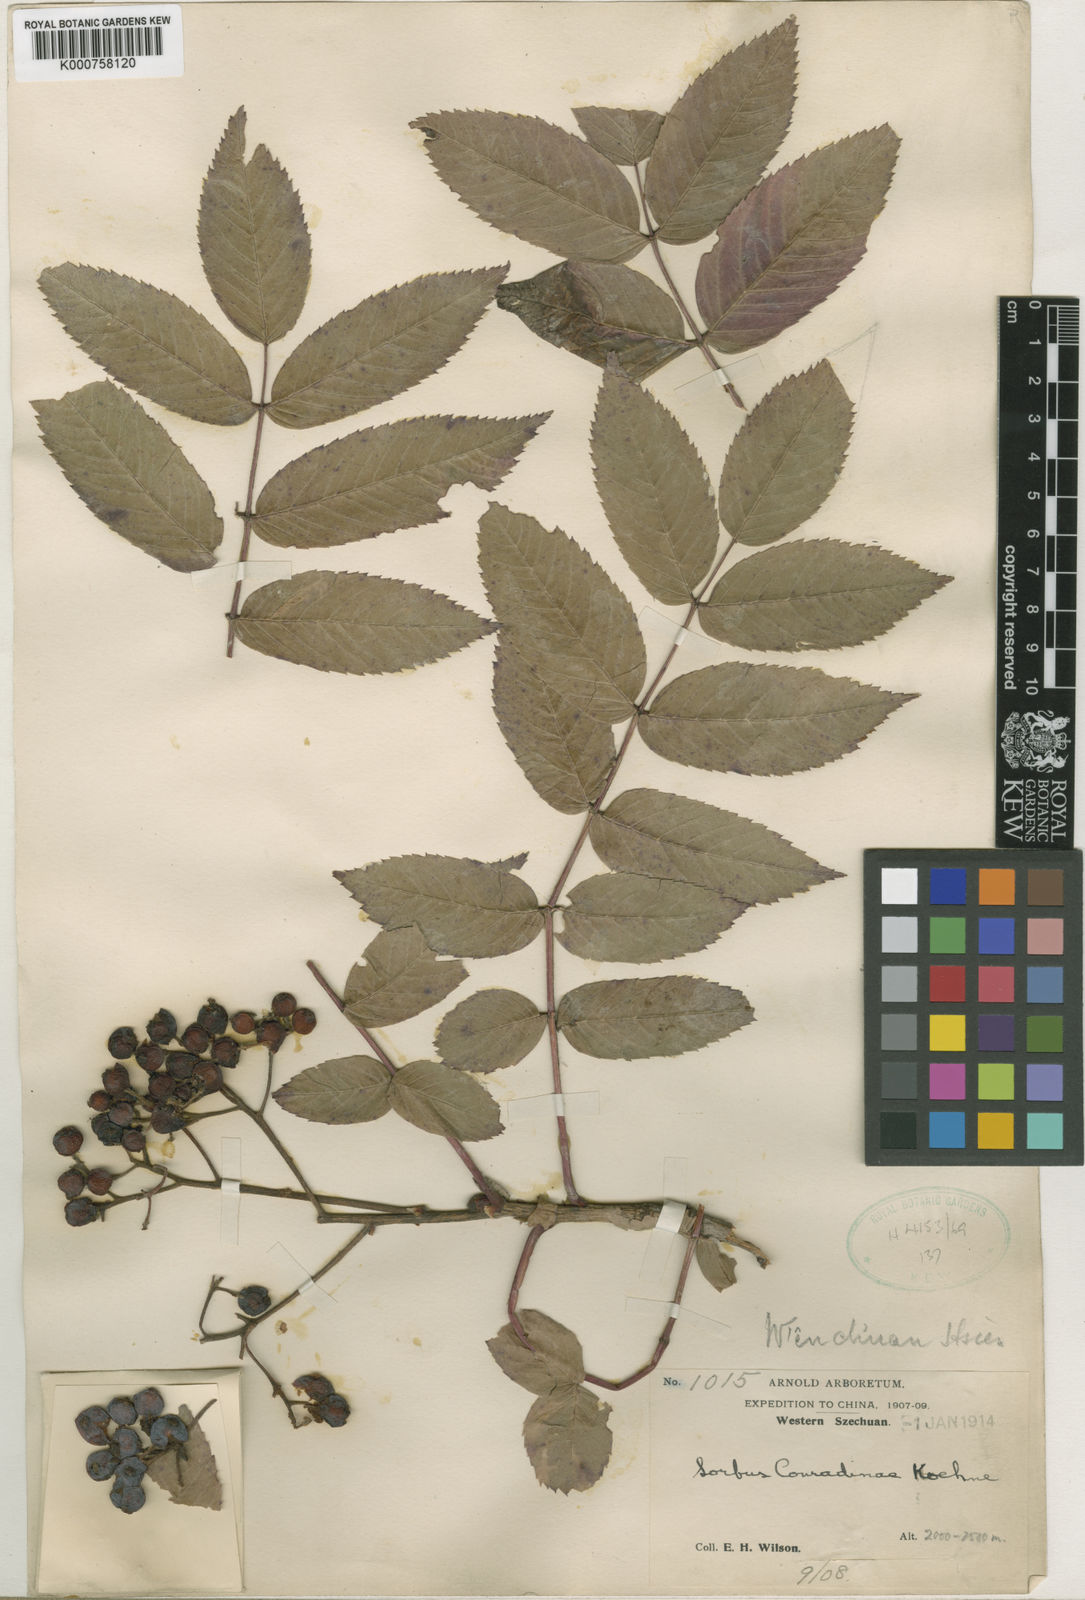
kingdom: Plantae
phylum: Tracheophyta
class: Magnoliopsida
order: Rosales
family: Rosaceae
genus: Sorbus
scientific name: Sorbus esserteauiana
